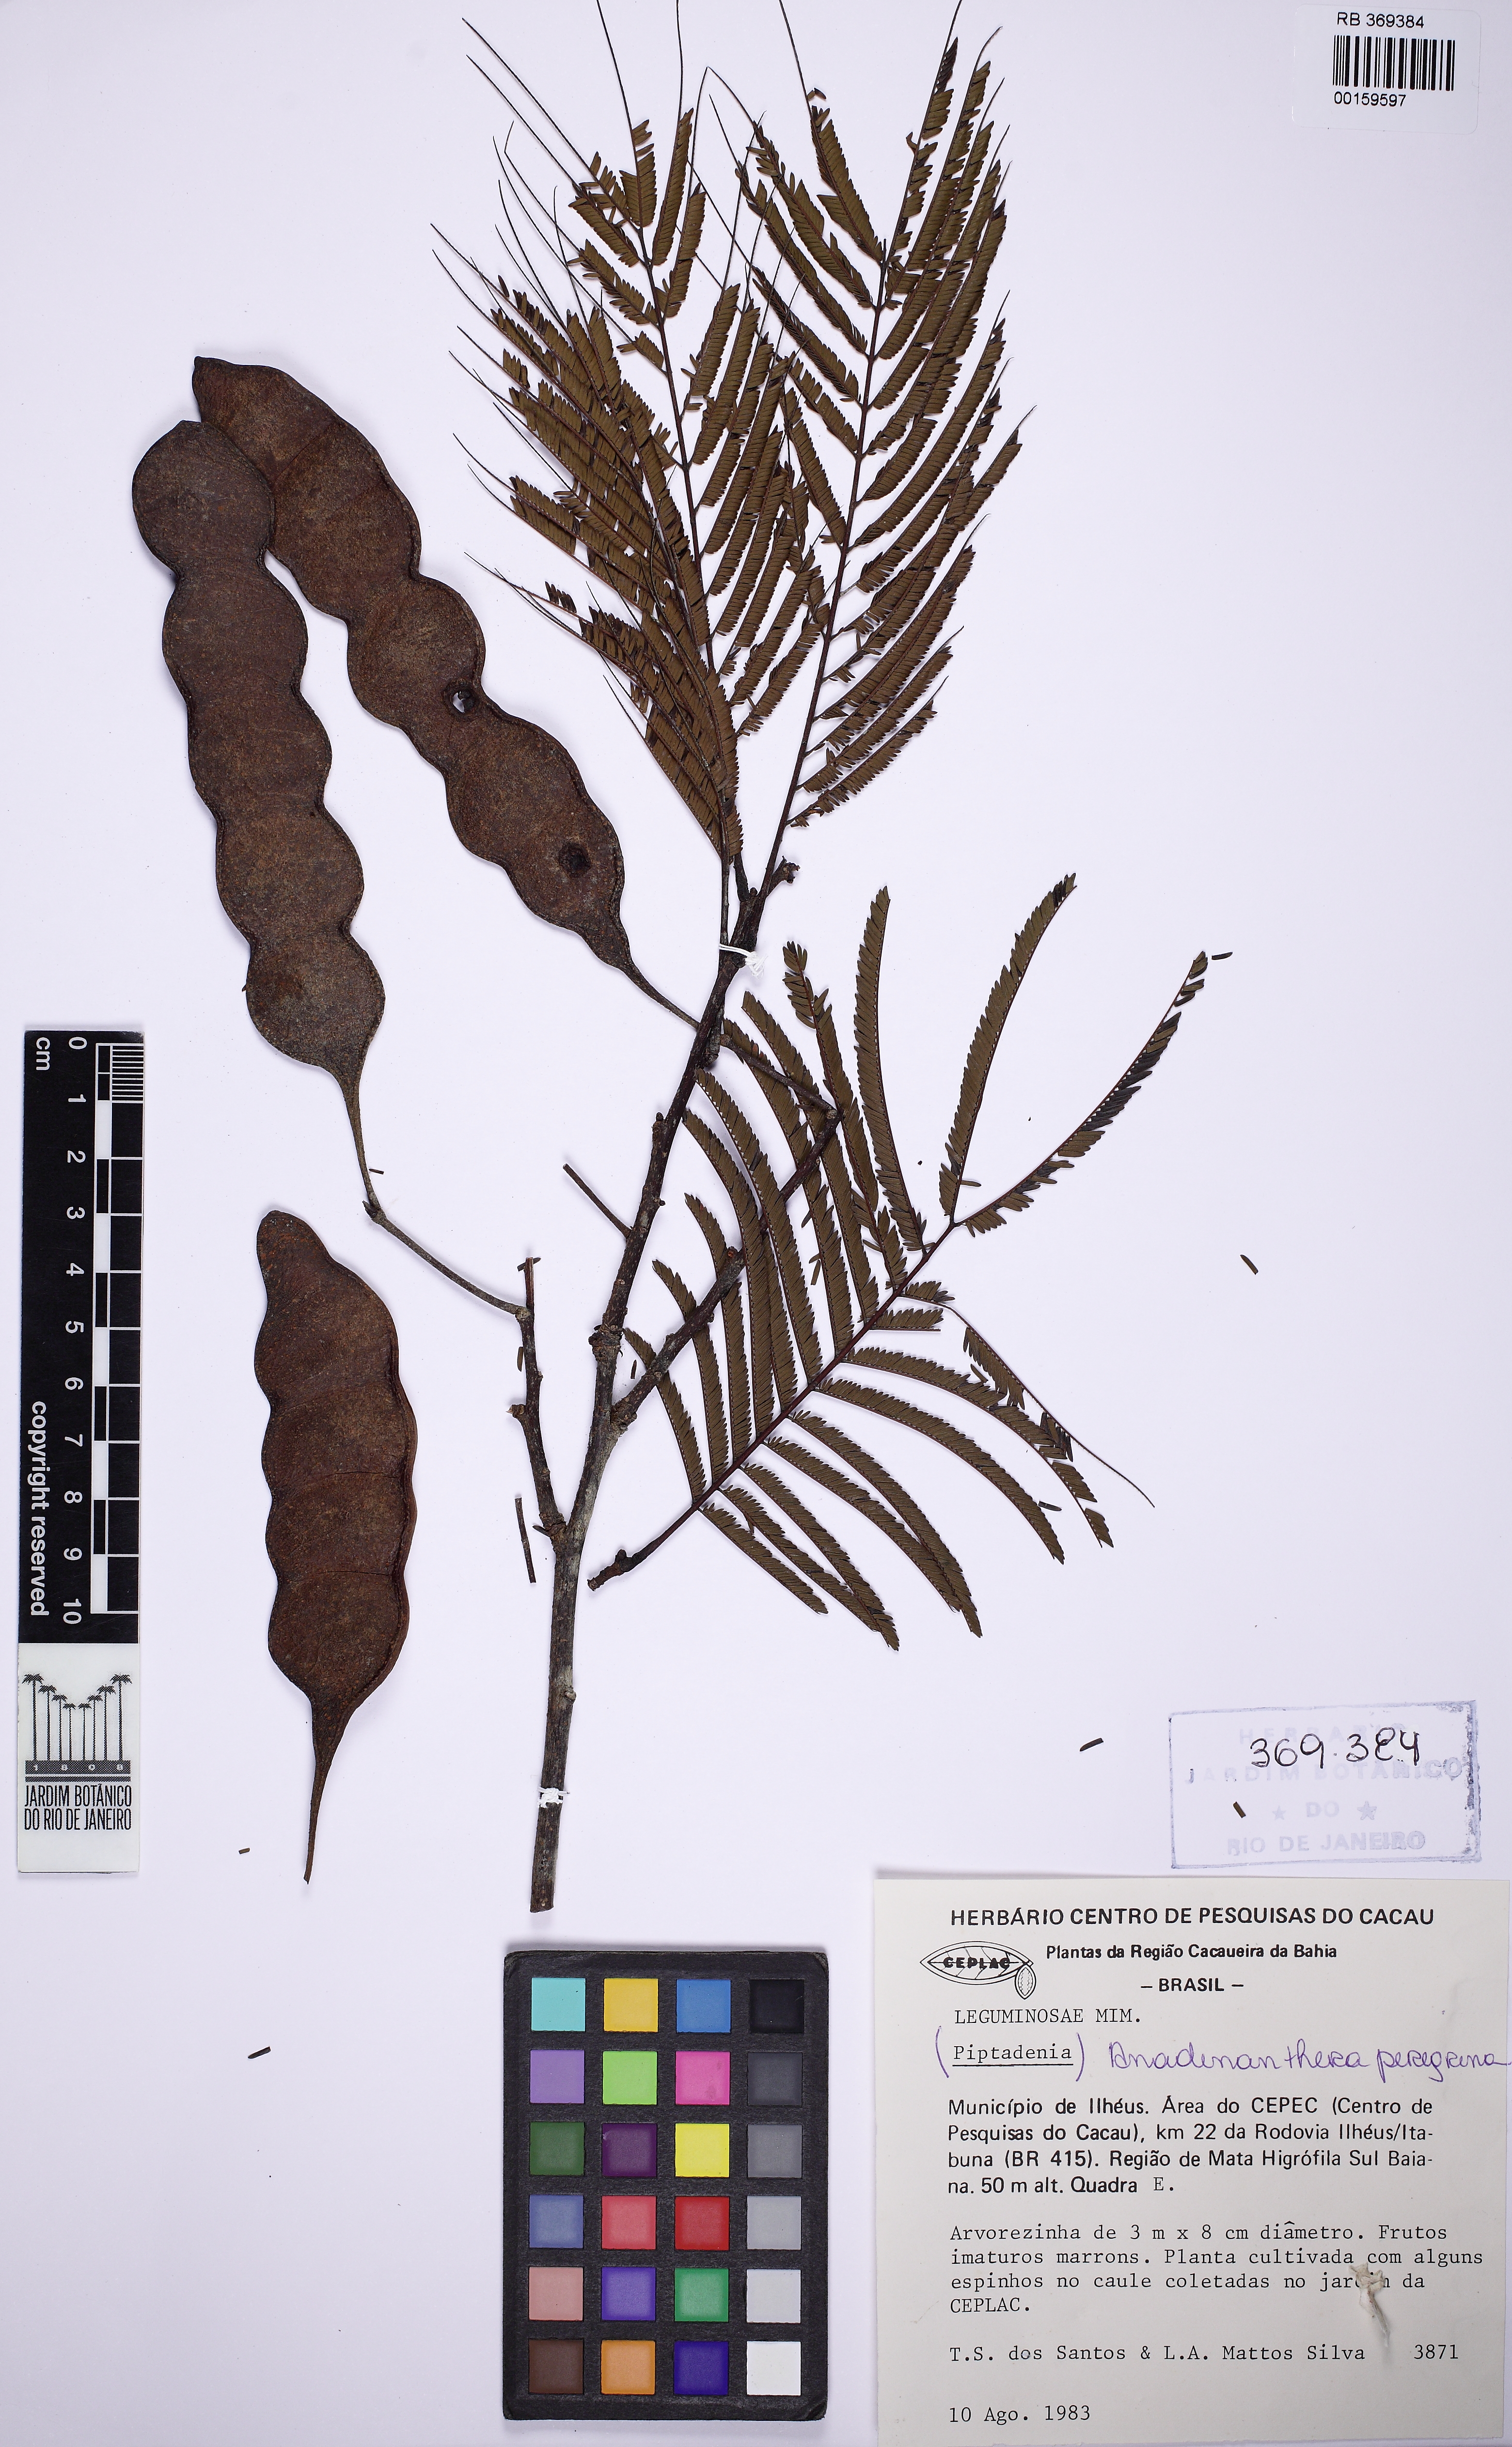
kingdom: Plantae
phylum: Tracheophyta
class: Magnoliopsida
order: Fabales
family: Fabaceae
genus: Anadenanthera
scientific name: Anadenanthera peregrina
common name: Cohoba
